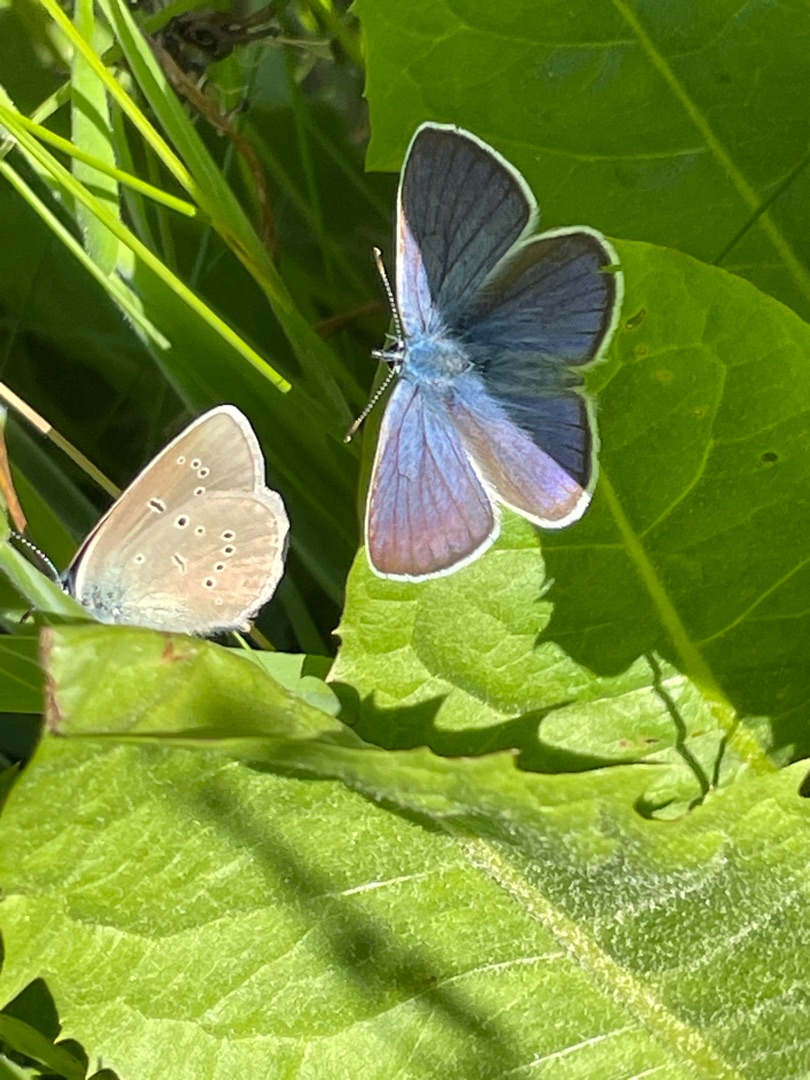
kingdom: Animalia
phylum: Arthropoda
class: Insecta
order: Lepidoptera
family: Lycaenidae
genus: Cyaniris
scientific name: Cyaniris semiargus
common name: Engblåfugl
